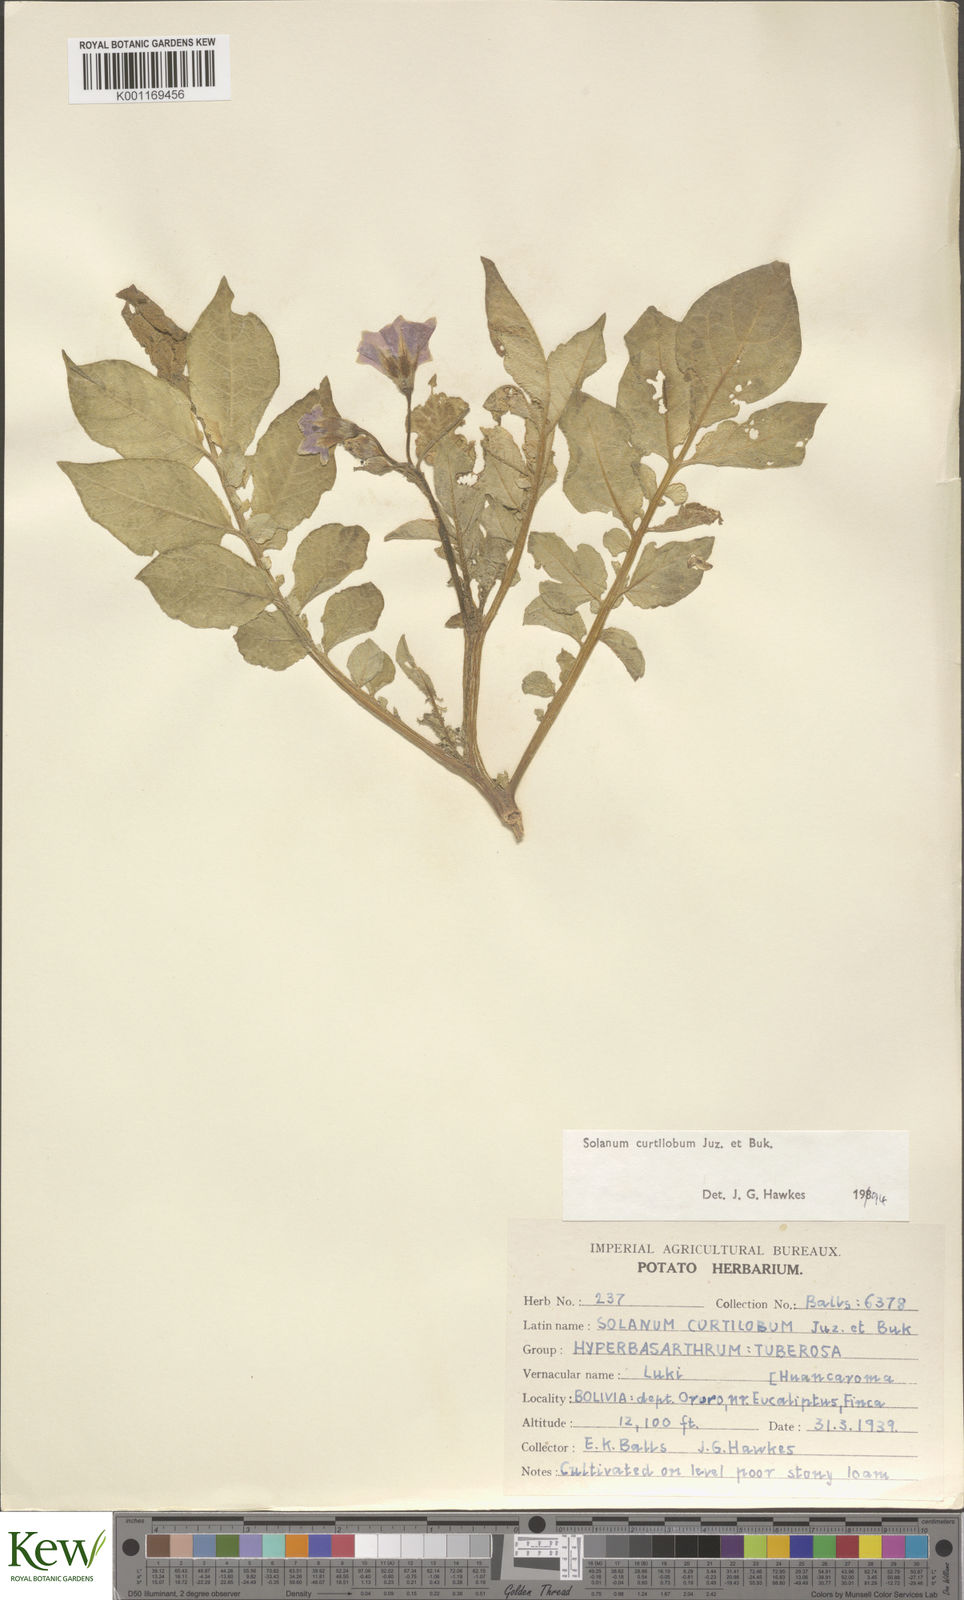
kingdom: Plantae
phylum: Tracheophyta
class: Magnoliopsida
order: Solanales
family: Solanaceae
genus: Solanum
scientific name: Solanum curtilobum
